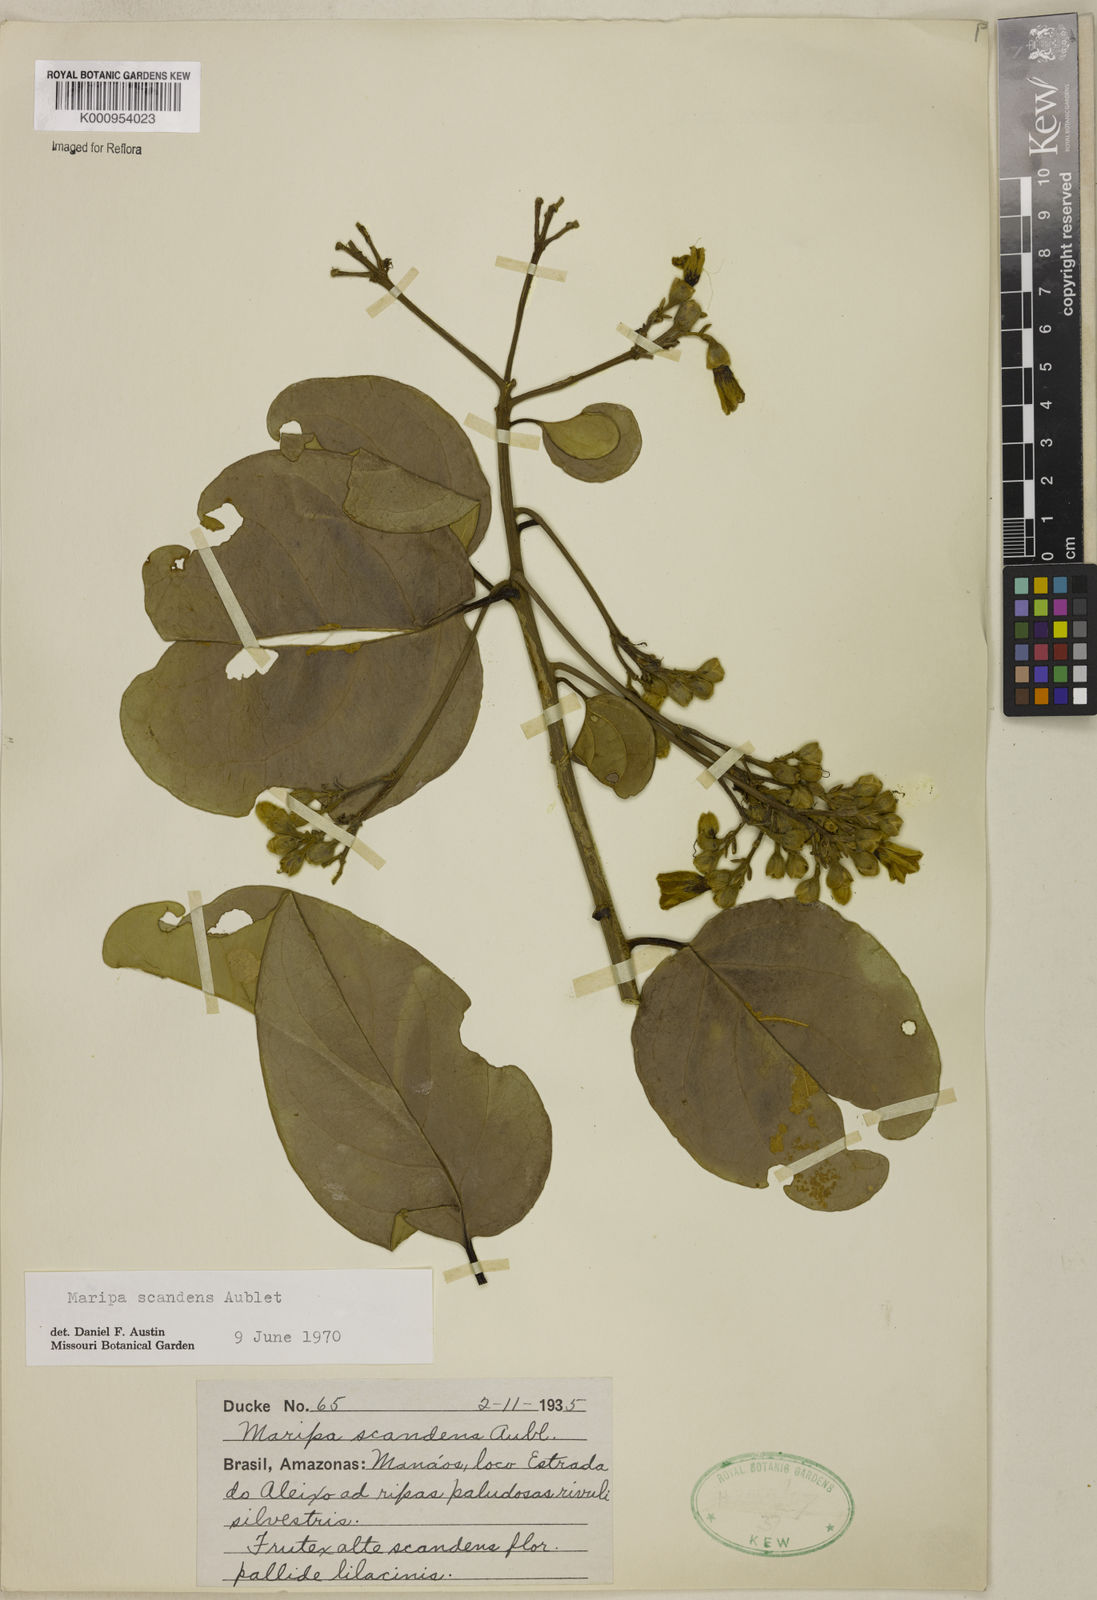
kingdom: Plantae
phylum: Tracheophyta
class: Magnoliopsida
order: Solanales
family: Convolvulaceae
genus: Maripa
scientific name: Maripa scandens
